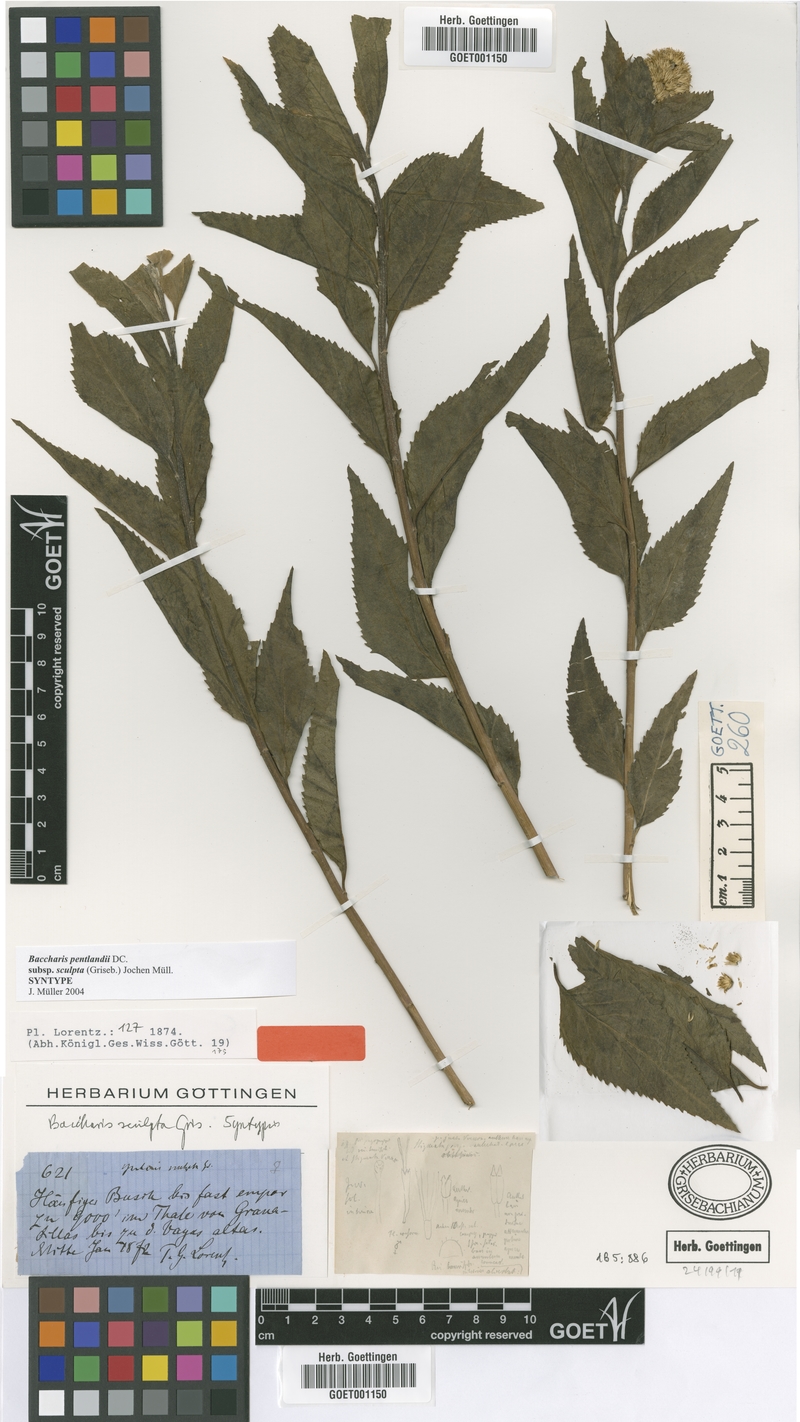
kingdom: Plantae
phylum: Tracheophyta
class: Magnoliopsida
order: Asterales
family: Asteraceae
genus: Baccharis
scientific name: Baccharis pentlandii
